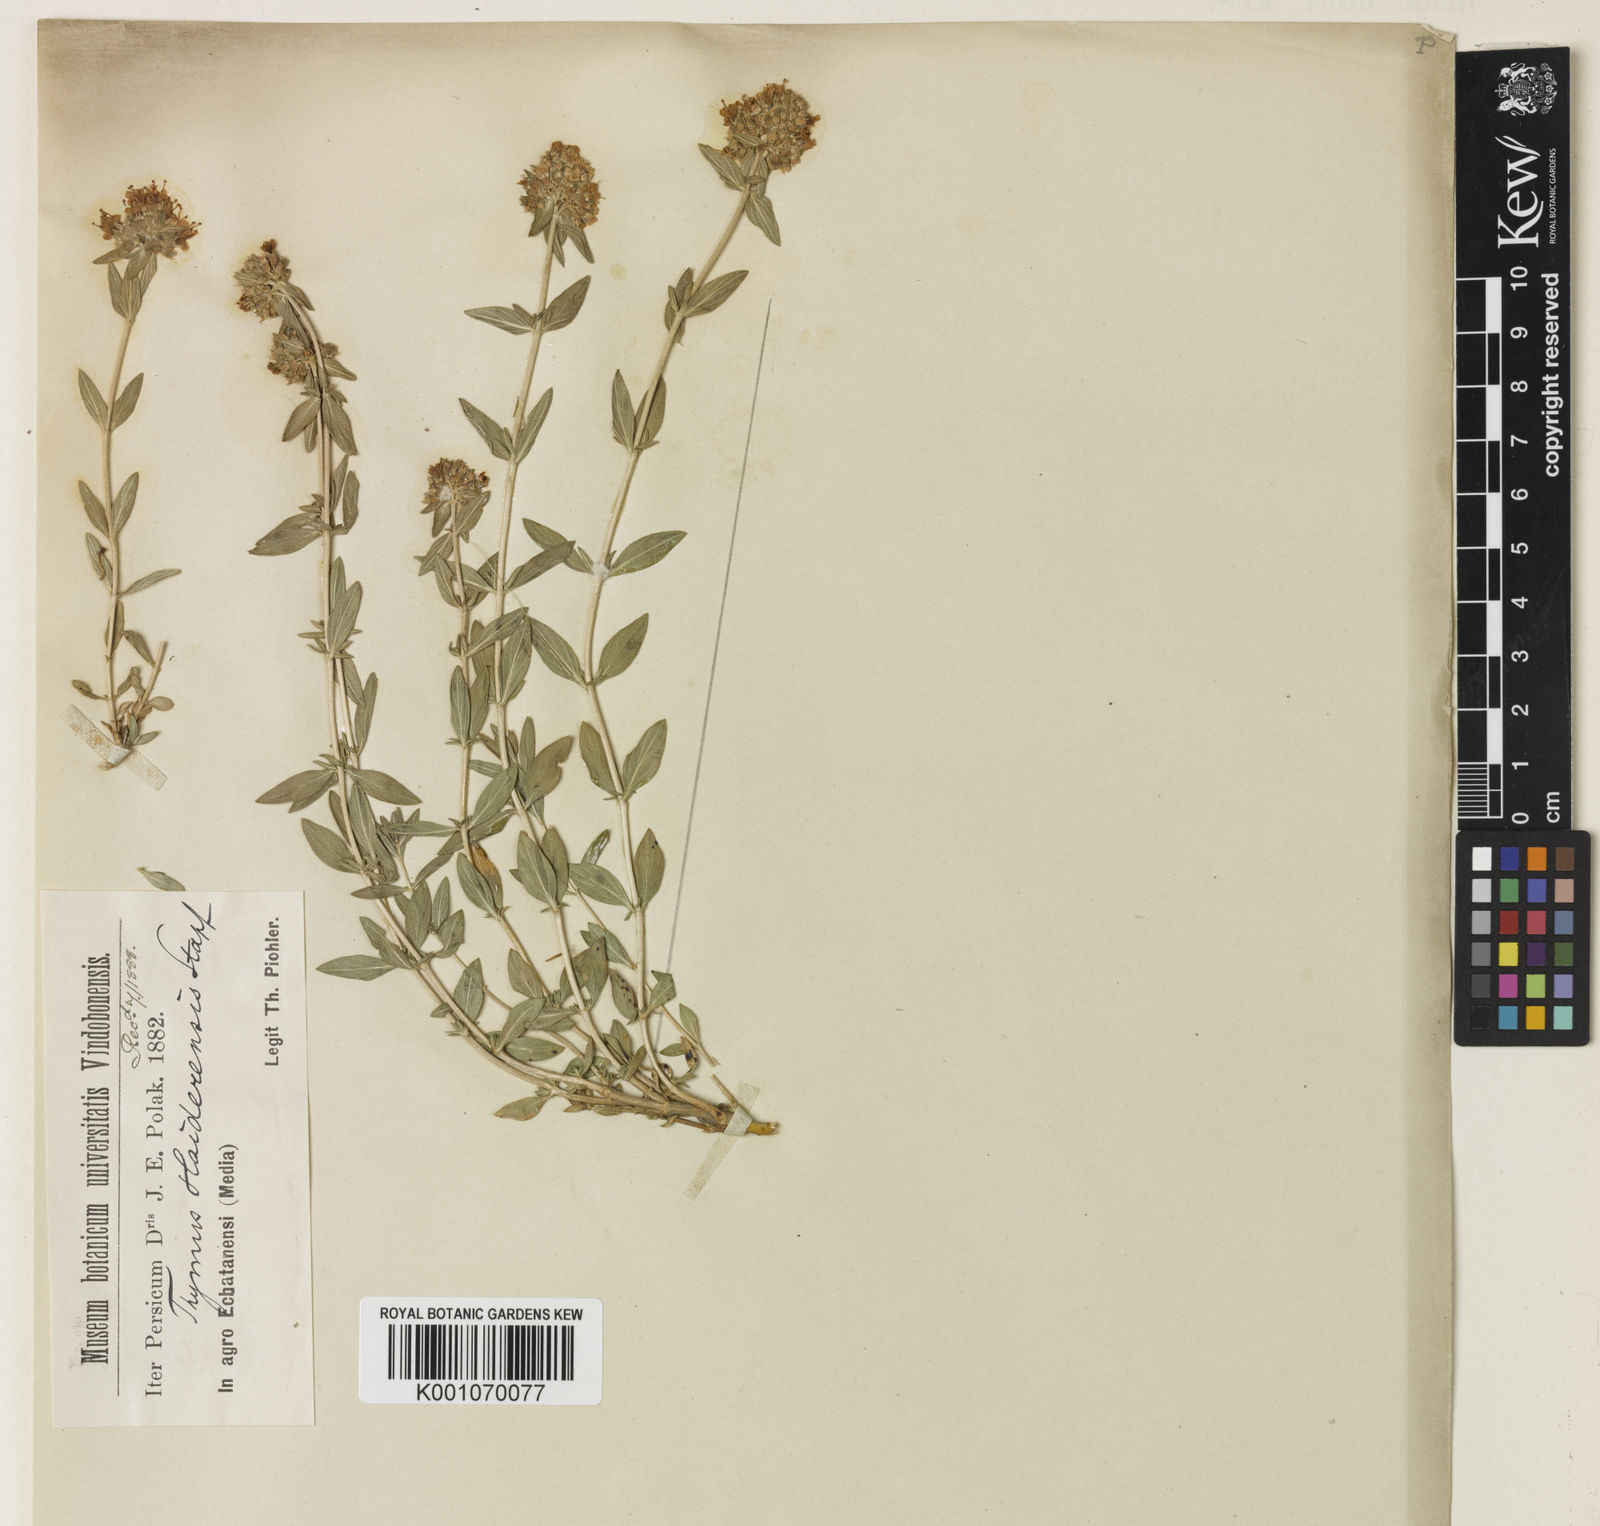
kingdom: Plantae
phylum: Tracheophyta
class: Magnoliopsida
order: Lamiales
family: Lamiaceae
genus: Thymus
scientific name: Thymus daenensis
